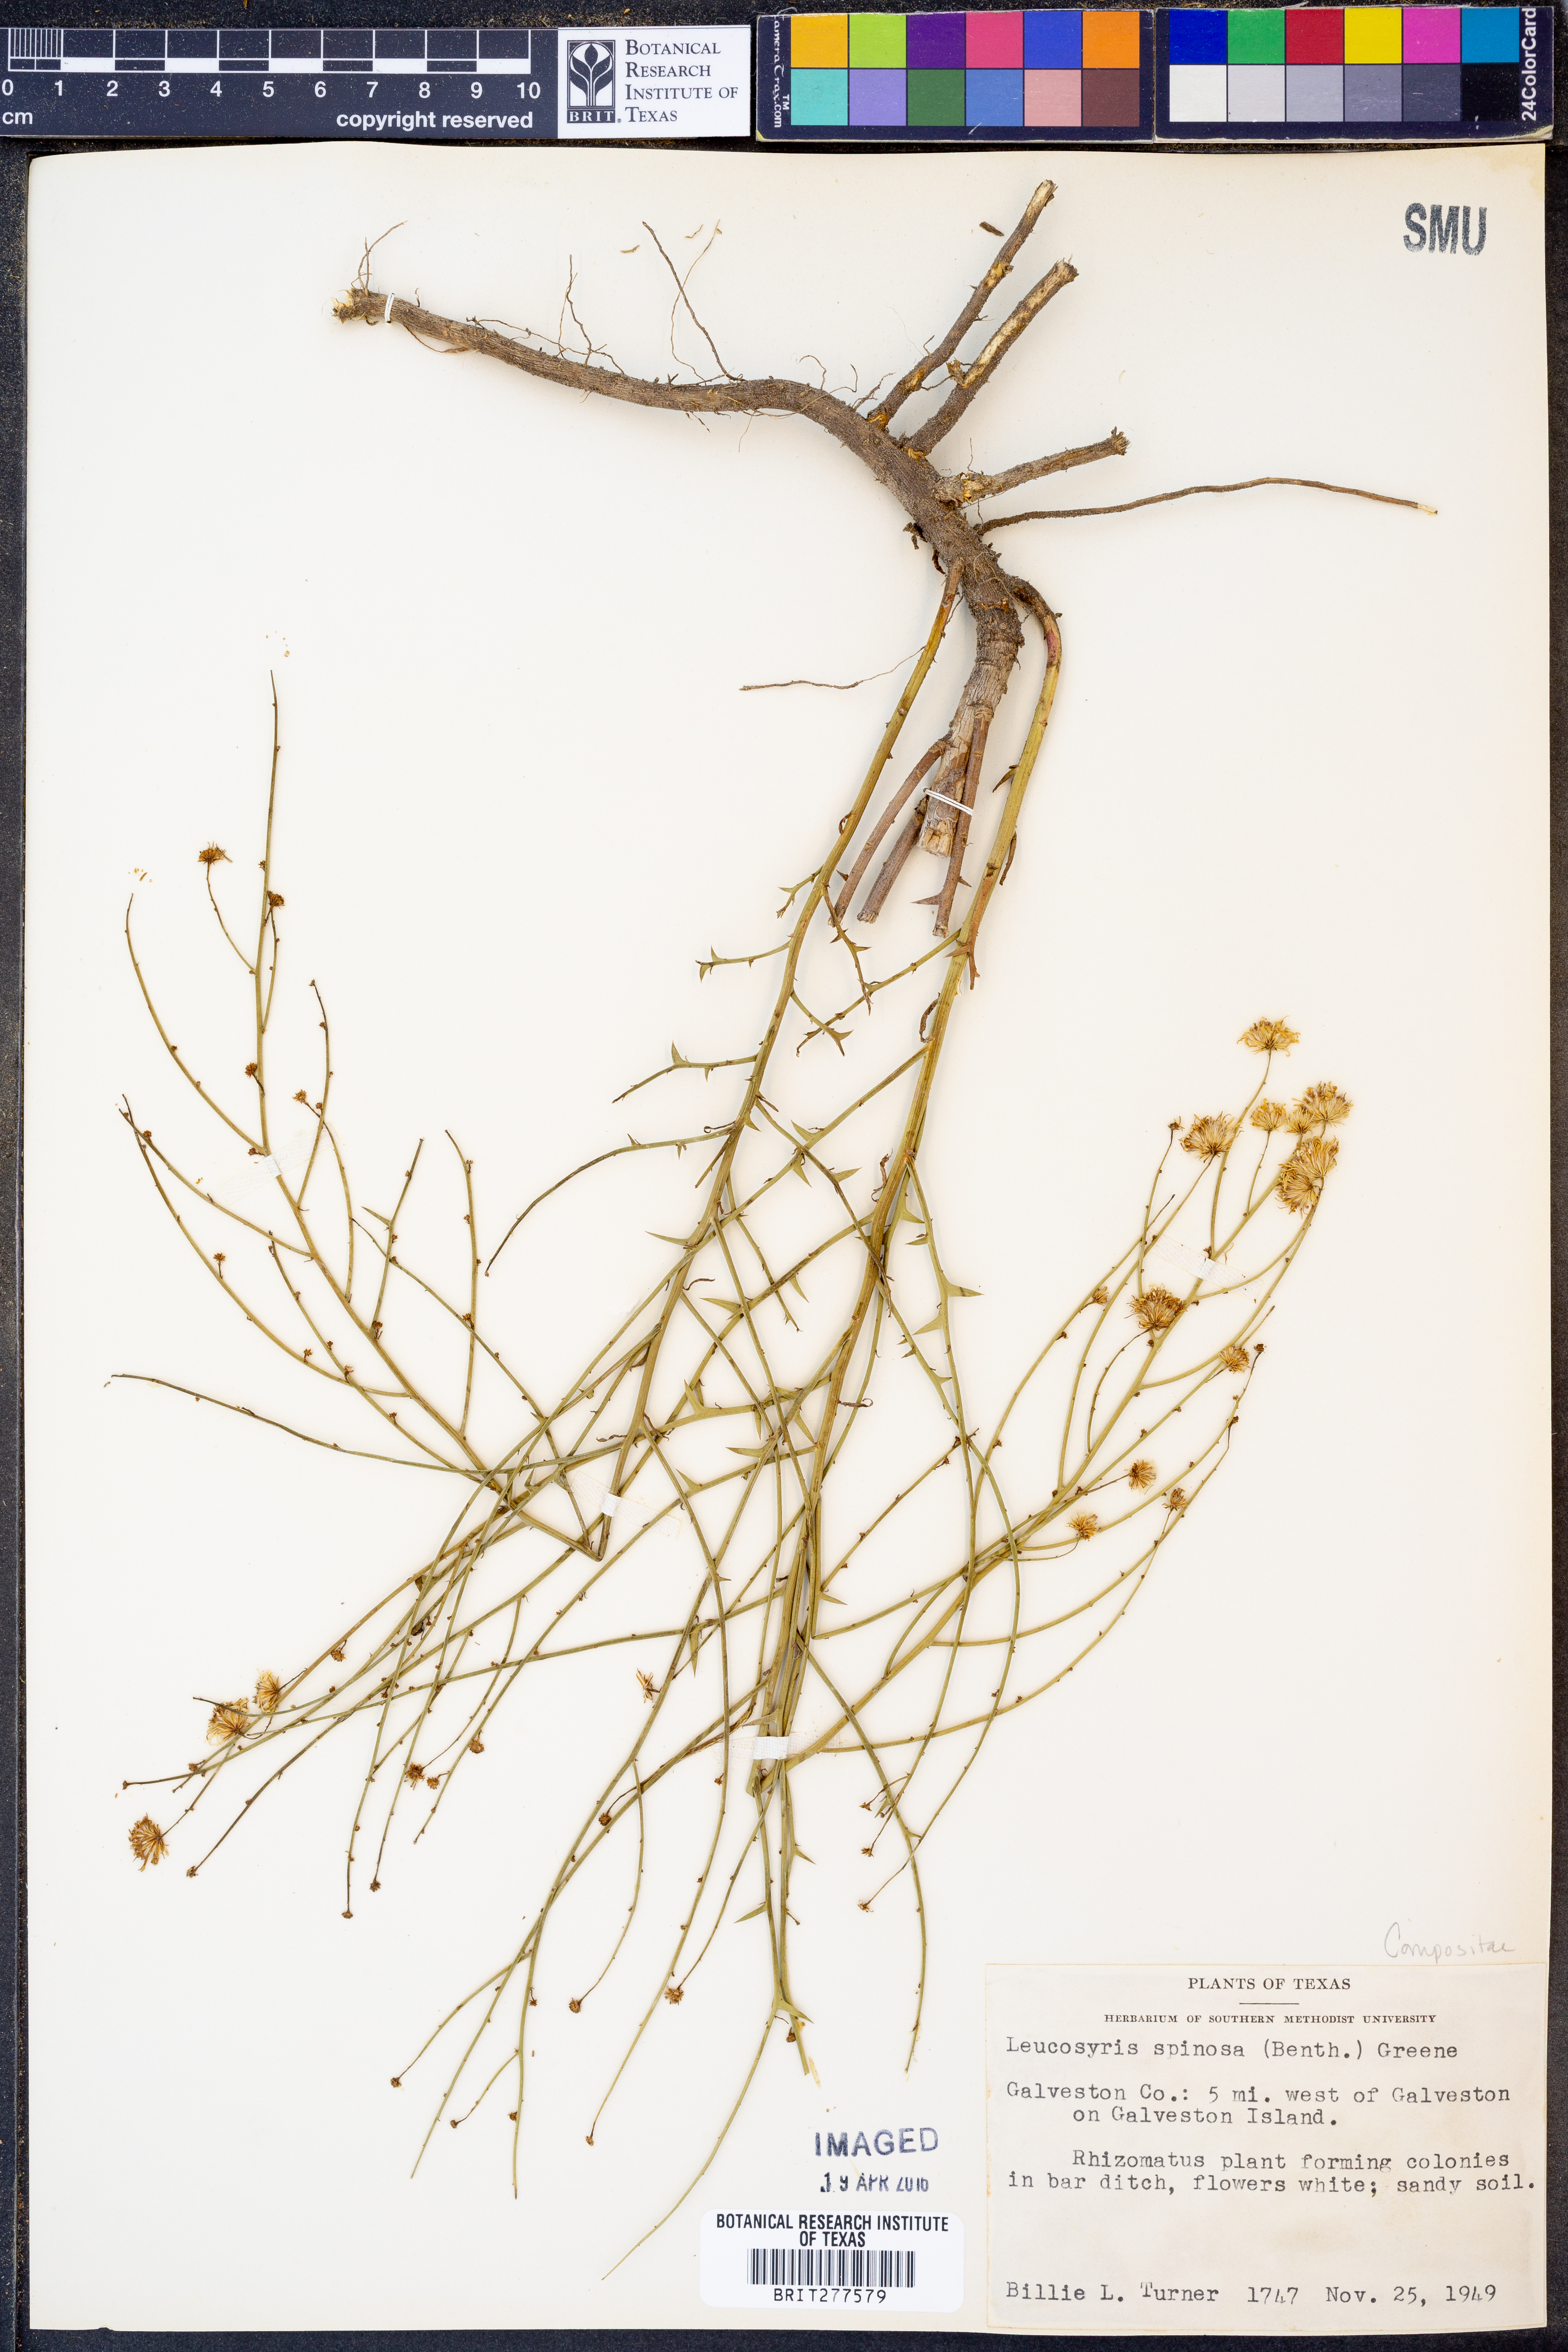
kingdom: Plantae
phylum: Tracheophyta
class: Magnoliopsida
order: Asterales
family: Asteraceae
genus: Chloracantha
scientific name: Chloracantha spinosa
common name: Mexican devilweed
